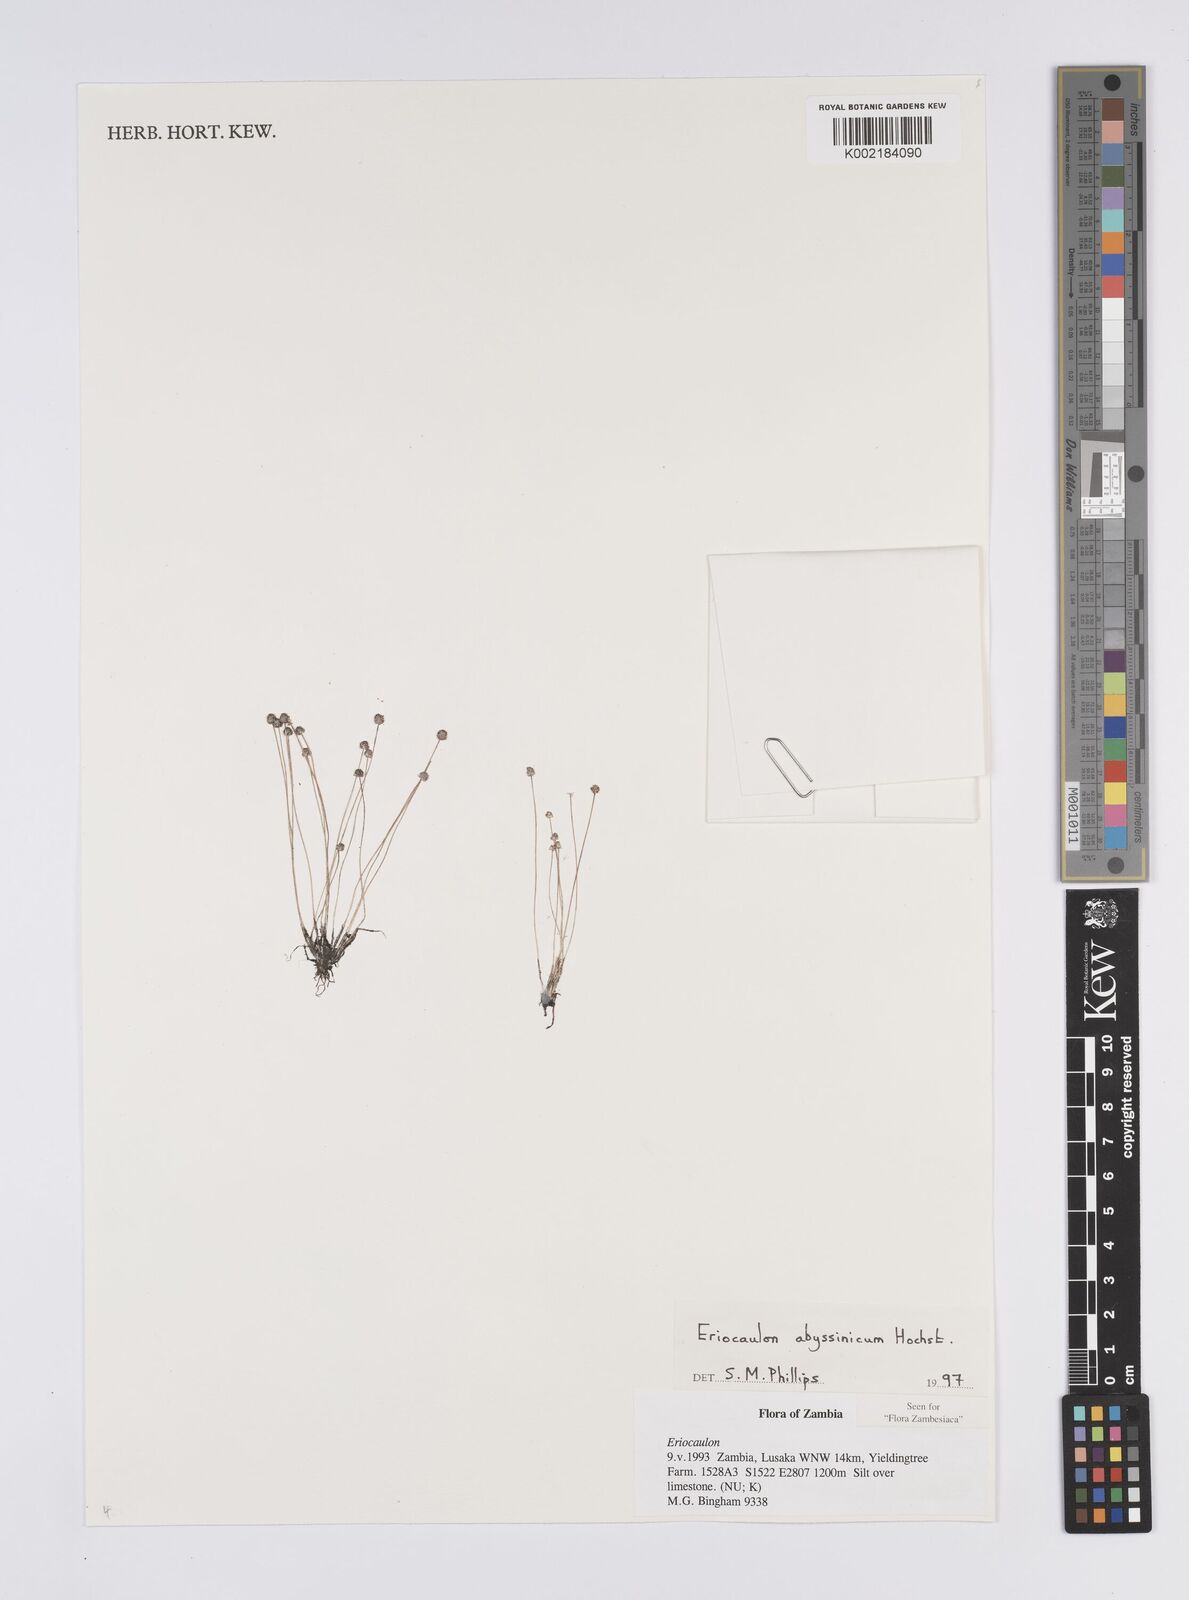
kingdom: Plantae
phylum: Tracheophyta
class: Liliopsida
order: Poales
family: Eriocaulaceae
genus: Eriocaulon
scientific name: Eriocaulon abyssinicum
